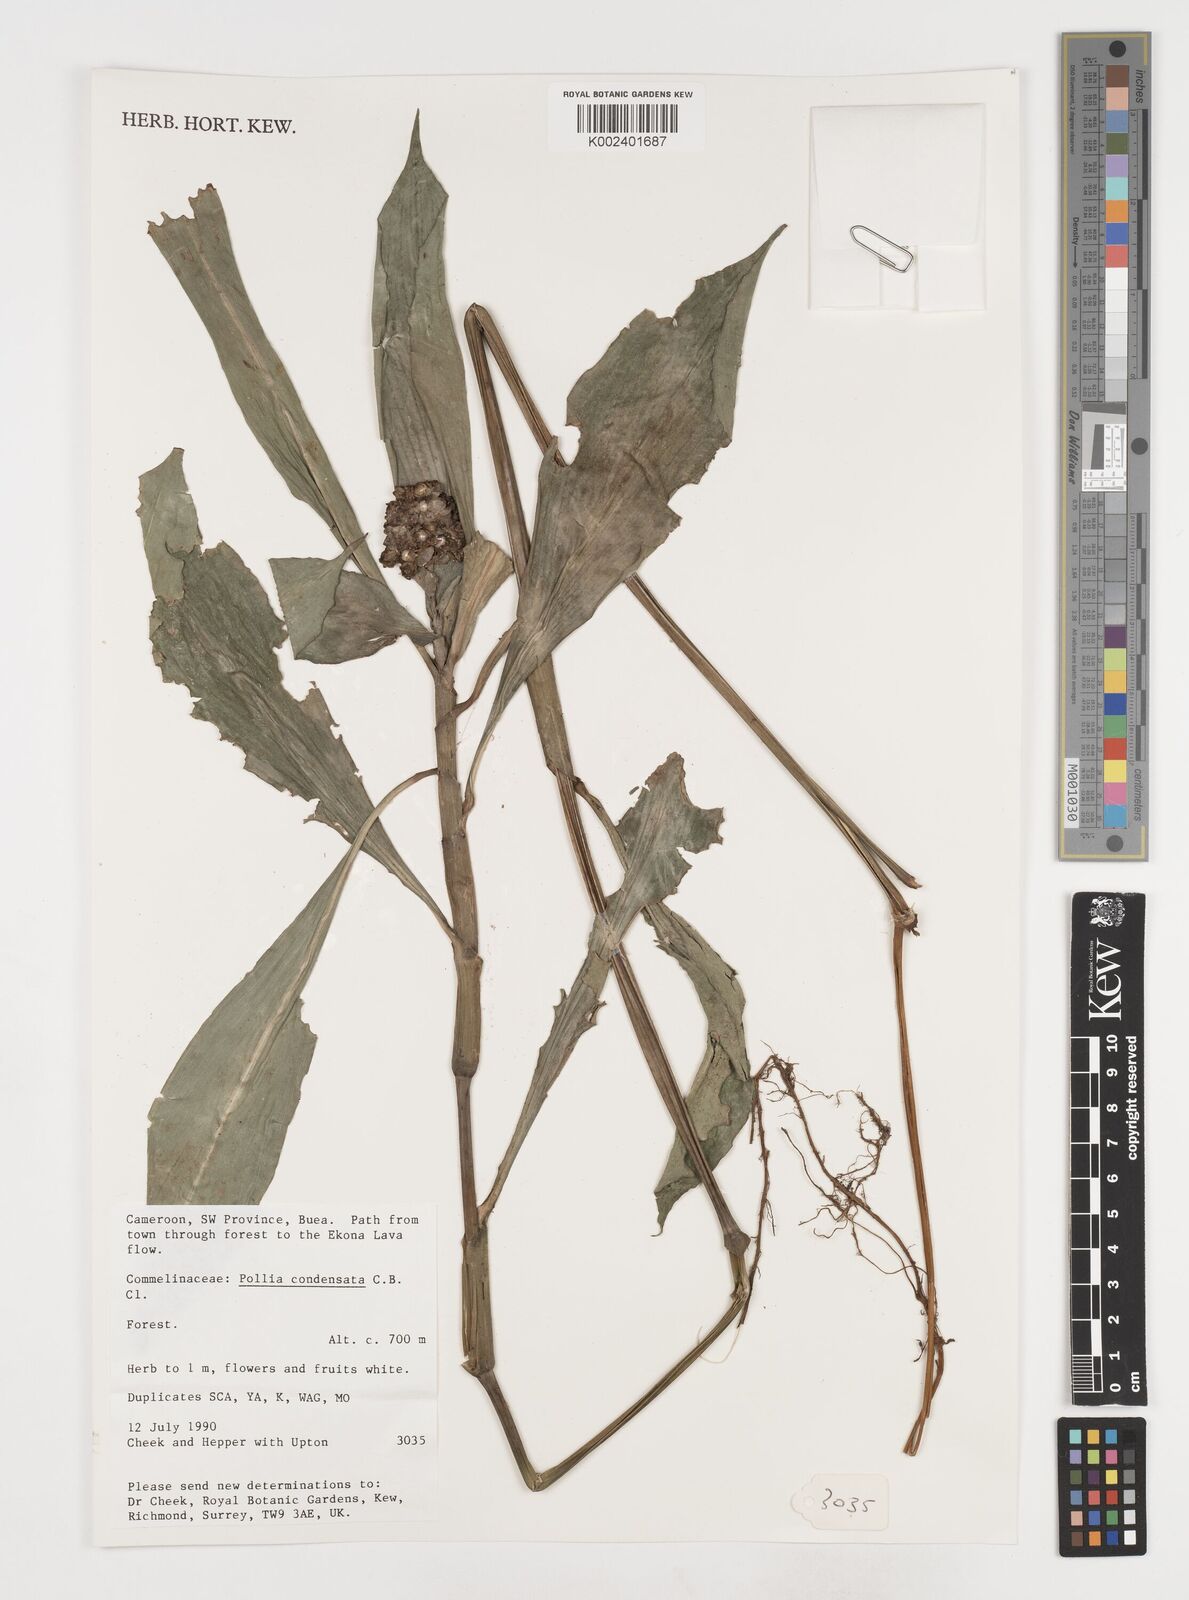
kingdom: Plantae
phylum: Tracheophyta
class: Liliopsida
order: Commelinales
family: Commelinaceae
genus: Pollia
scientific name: Pollia condensata
